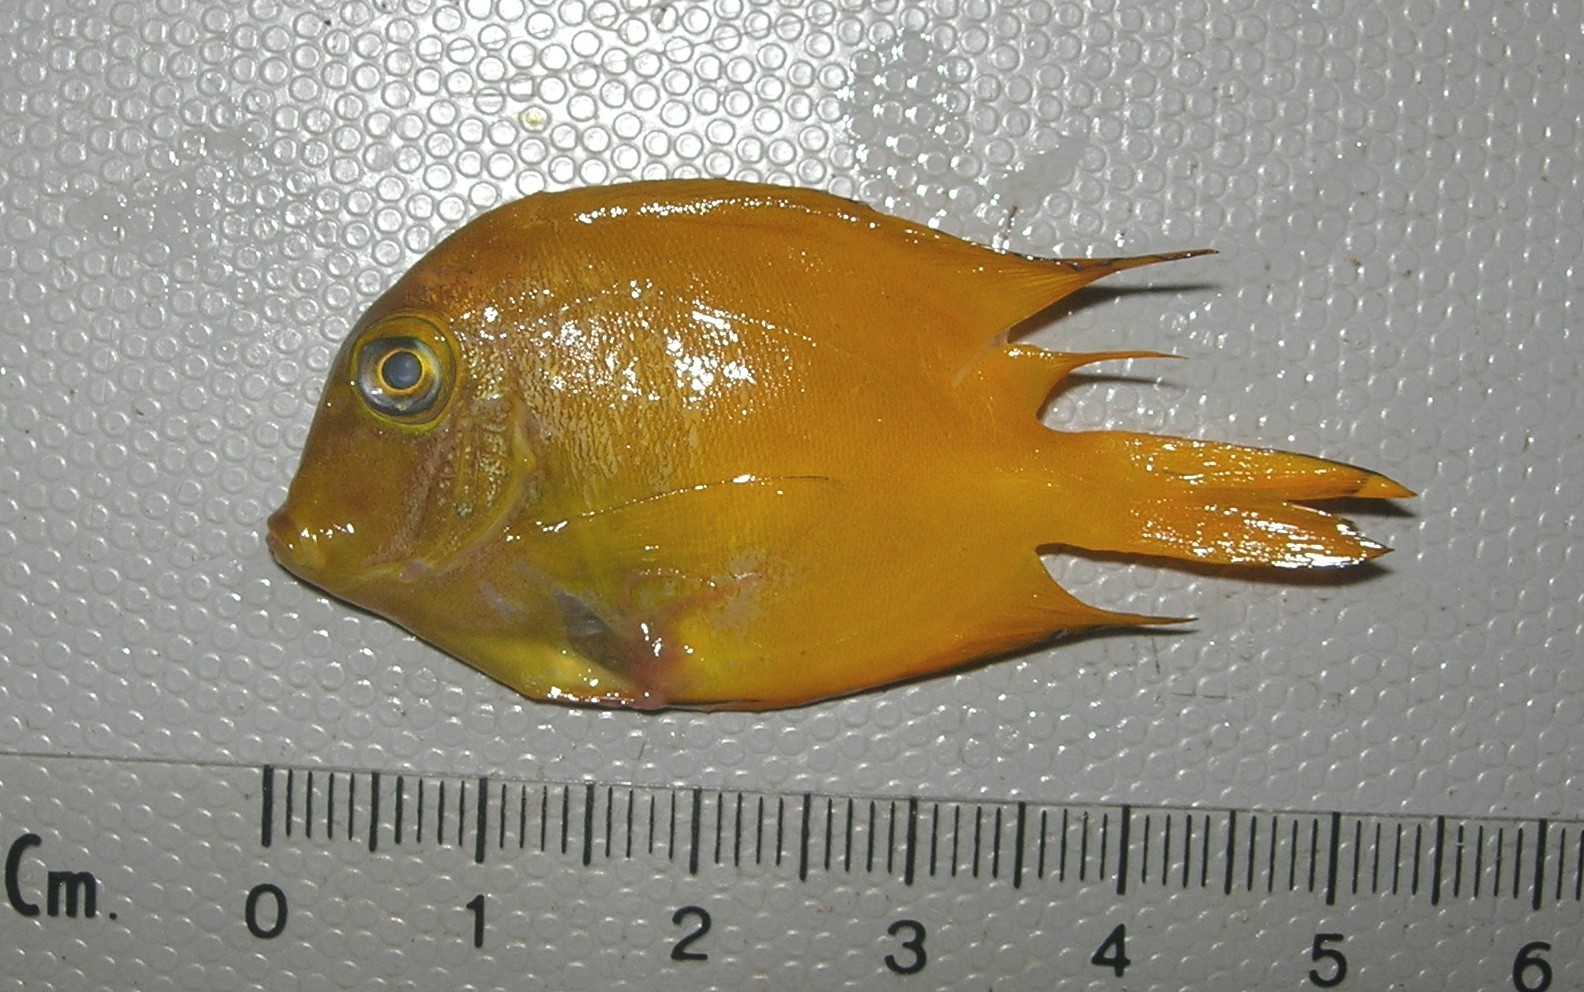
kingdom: Animalia
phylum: Chordata
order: Perciformes
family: Acanthuridae
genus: Ctenochaetus
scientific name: Ctenochaetus truncatus
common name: Indian gold-ring bristle-tooth
